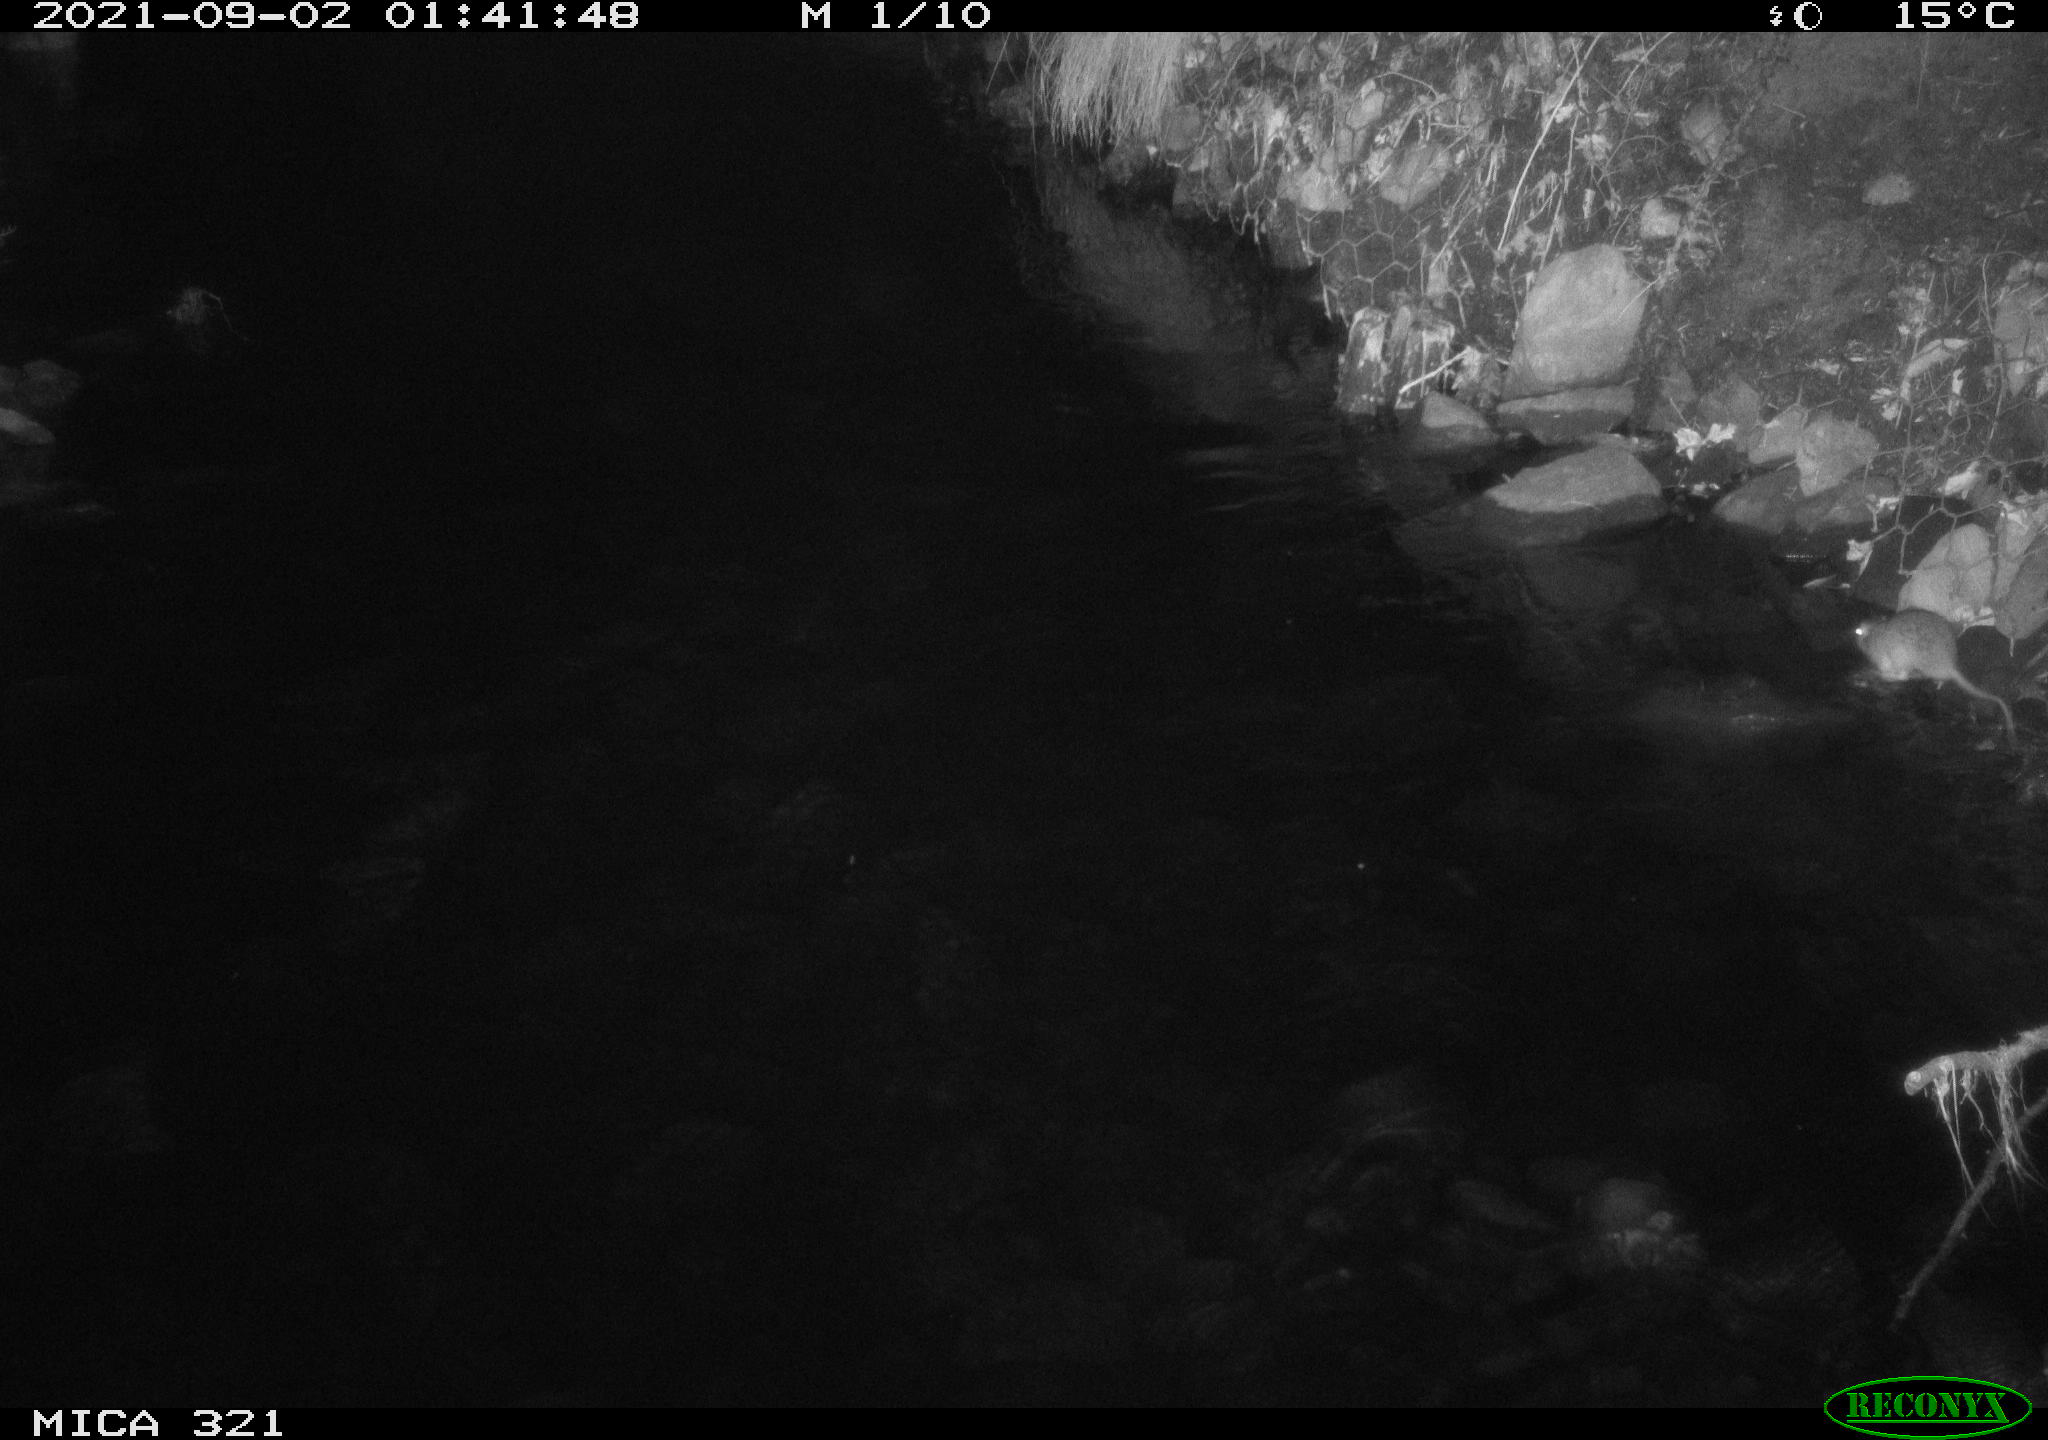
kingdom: Animalia
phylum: Chordata
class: Mammalia
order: Rodentia
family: Muridae
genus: Rattus
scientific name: Rattus norvegicus
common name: Brown rat
